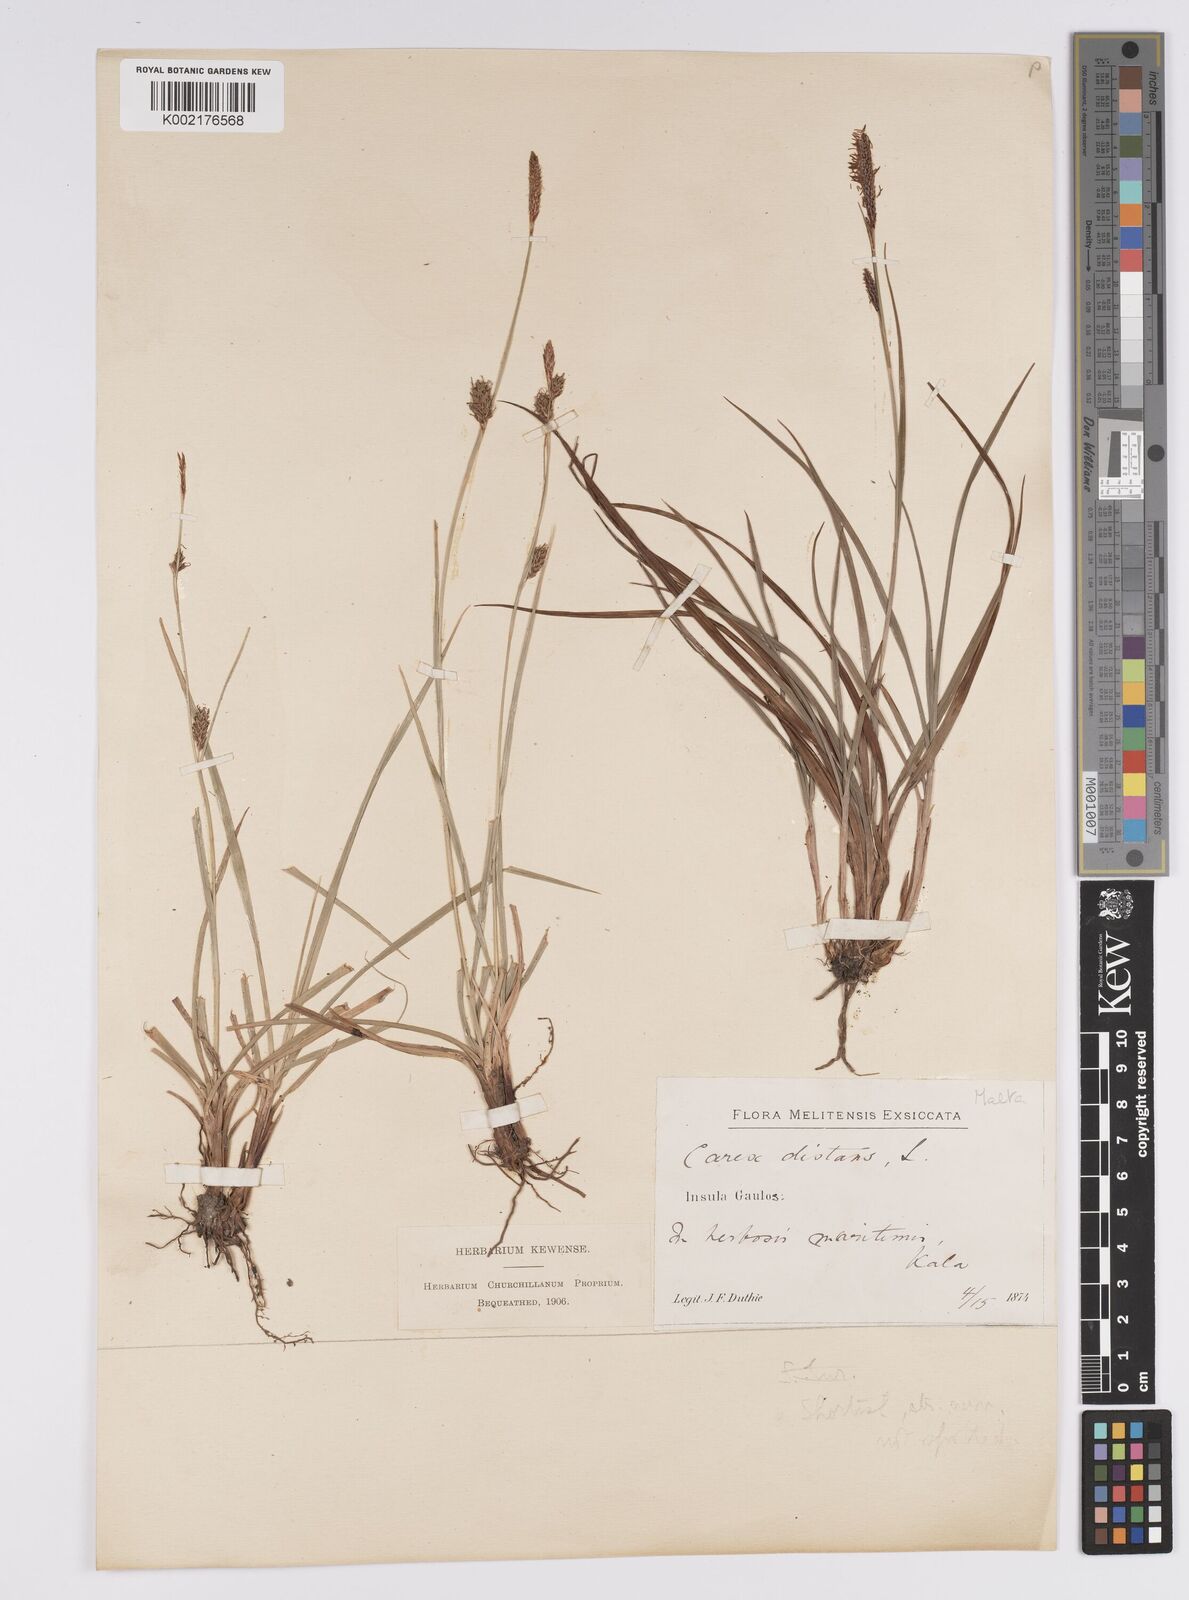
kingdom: Plantae
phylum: Tracheophyta
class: Liliopsida
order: Poales
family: Cyperaceae
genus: Carex
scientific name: Carex distans
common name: Distant sedge
